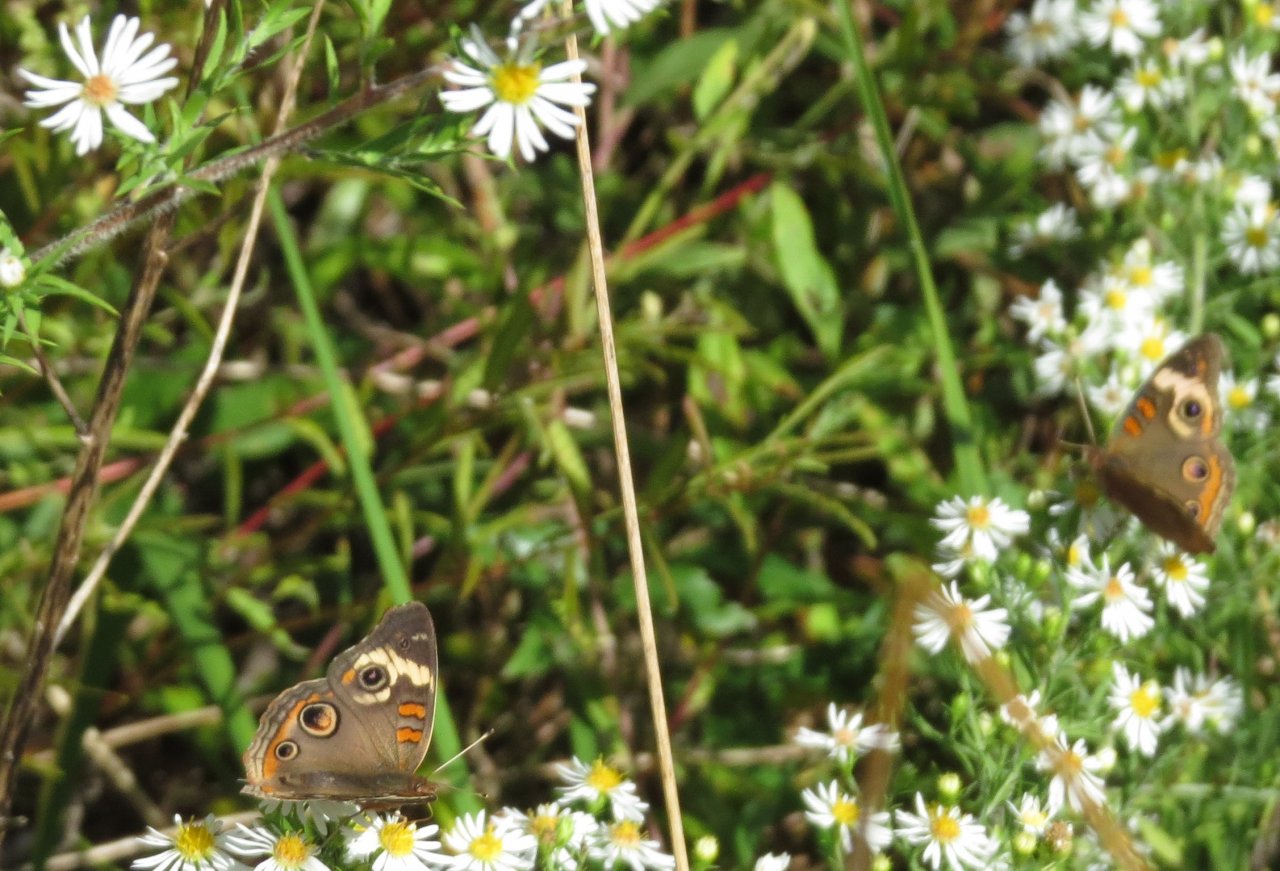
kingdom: Animalia
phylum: Arthropoda
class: Insecta
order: Lepidoptera
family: Nymphalidae
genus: Junonia
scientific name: Junonia coenia
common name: Common Buckeye
